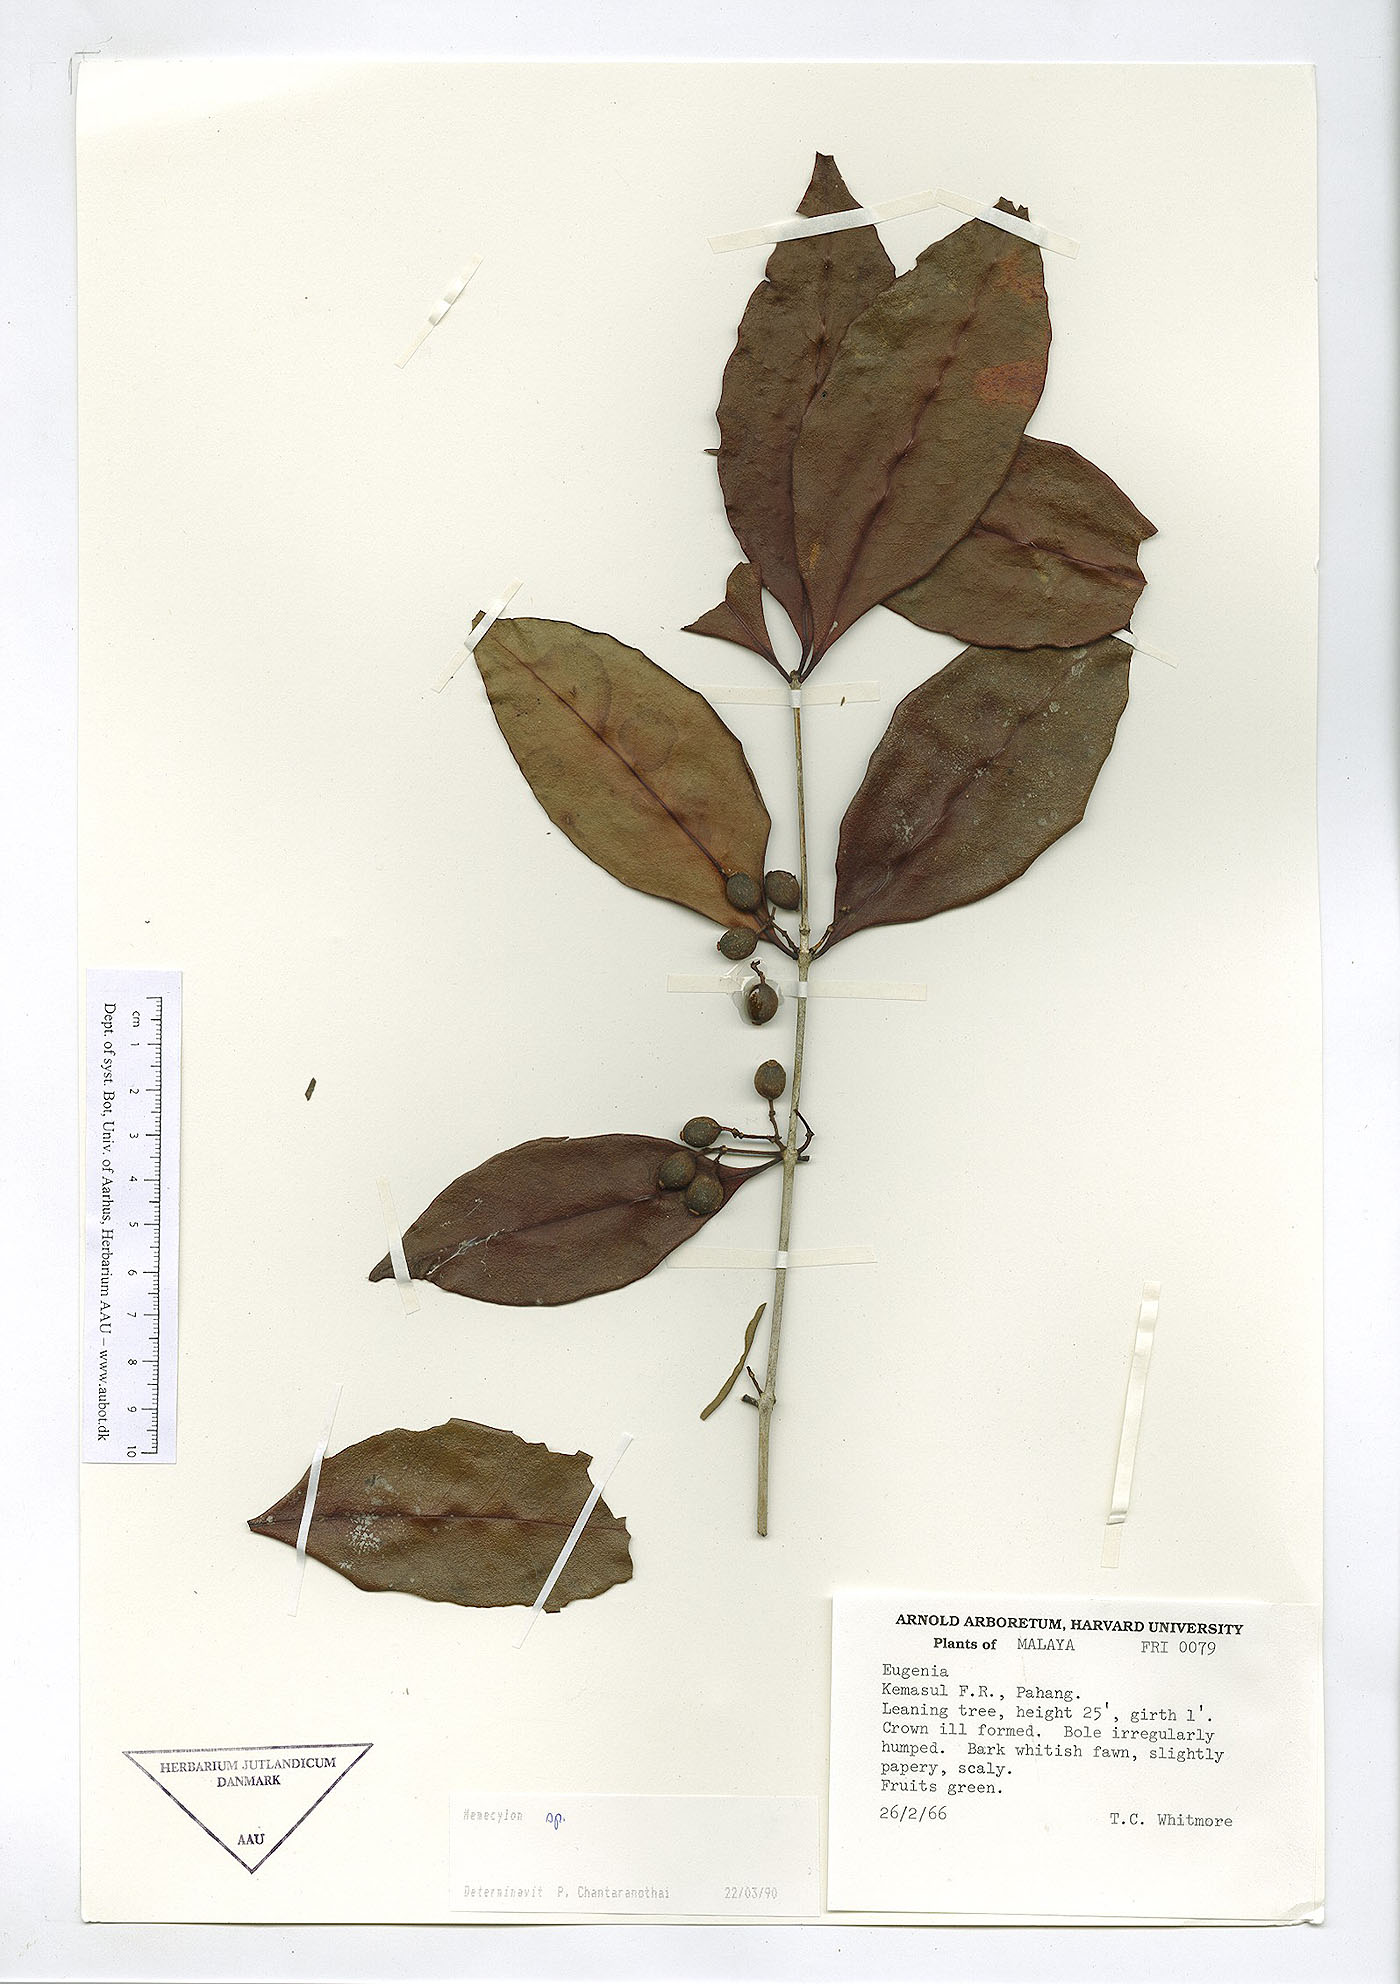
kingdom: Plantae
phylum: Tracheophyta
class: Magnoliopsida
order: Myrtales
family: Melastomataceae
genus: Memecylon
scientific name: Memecylon
